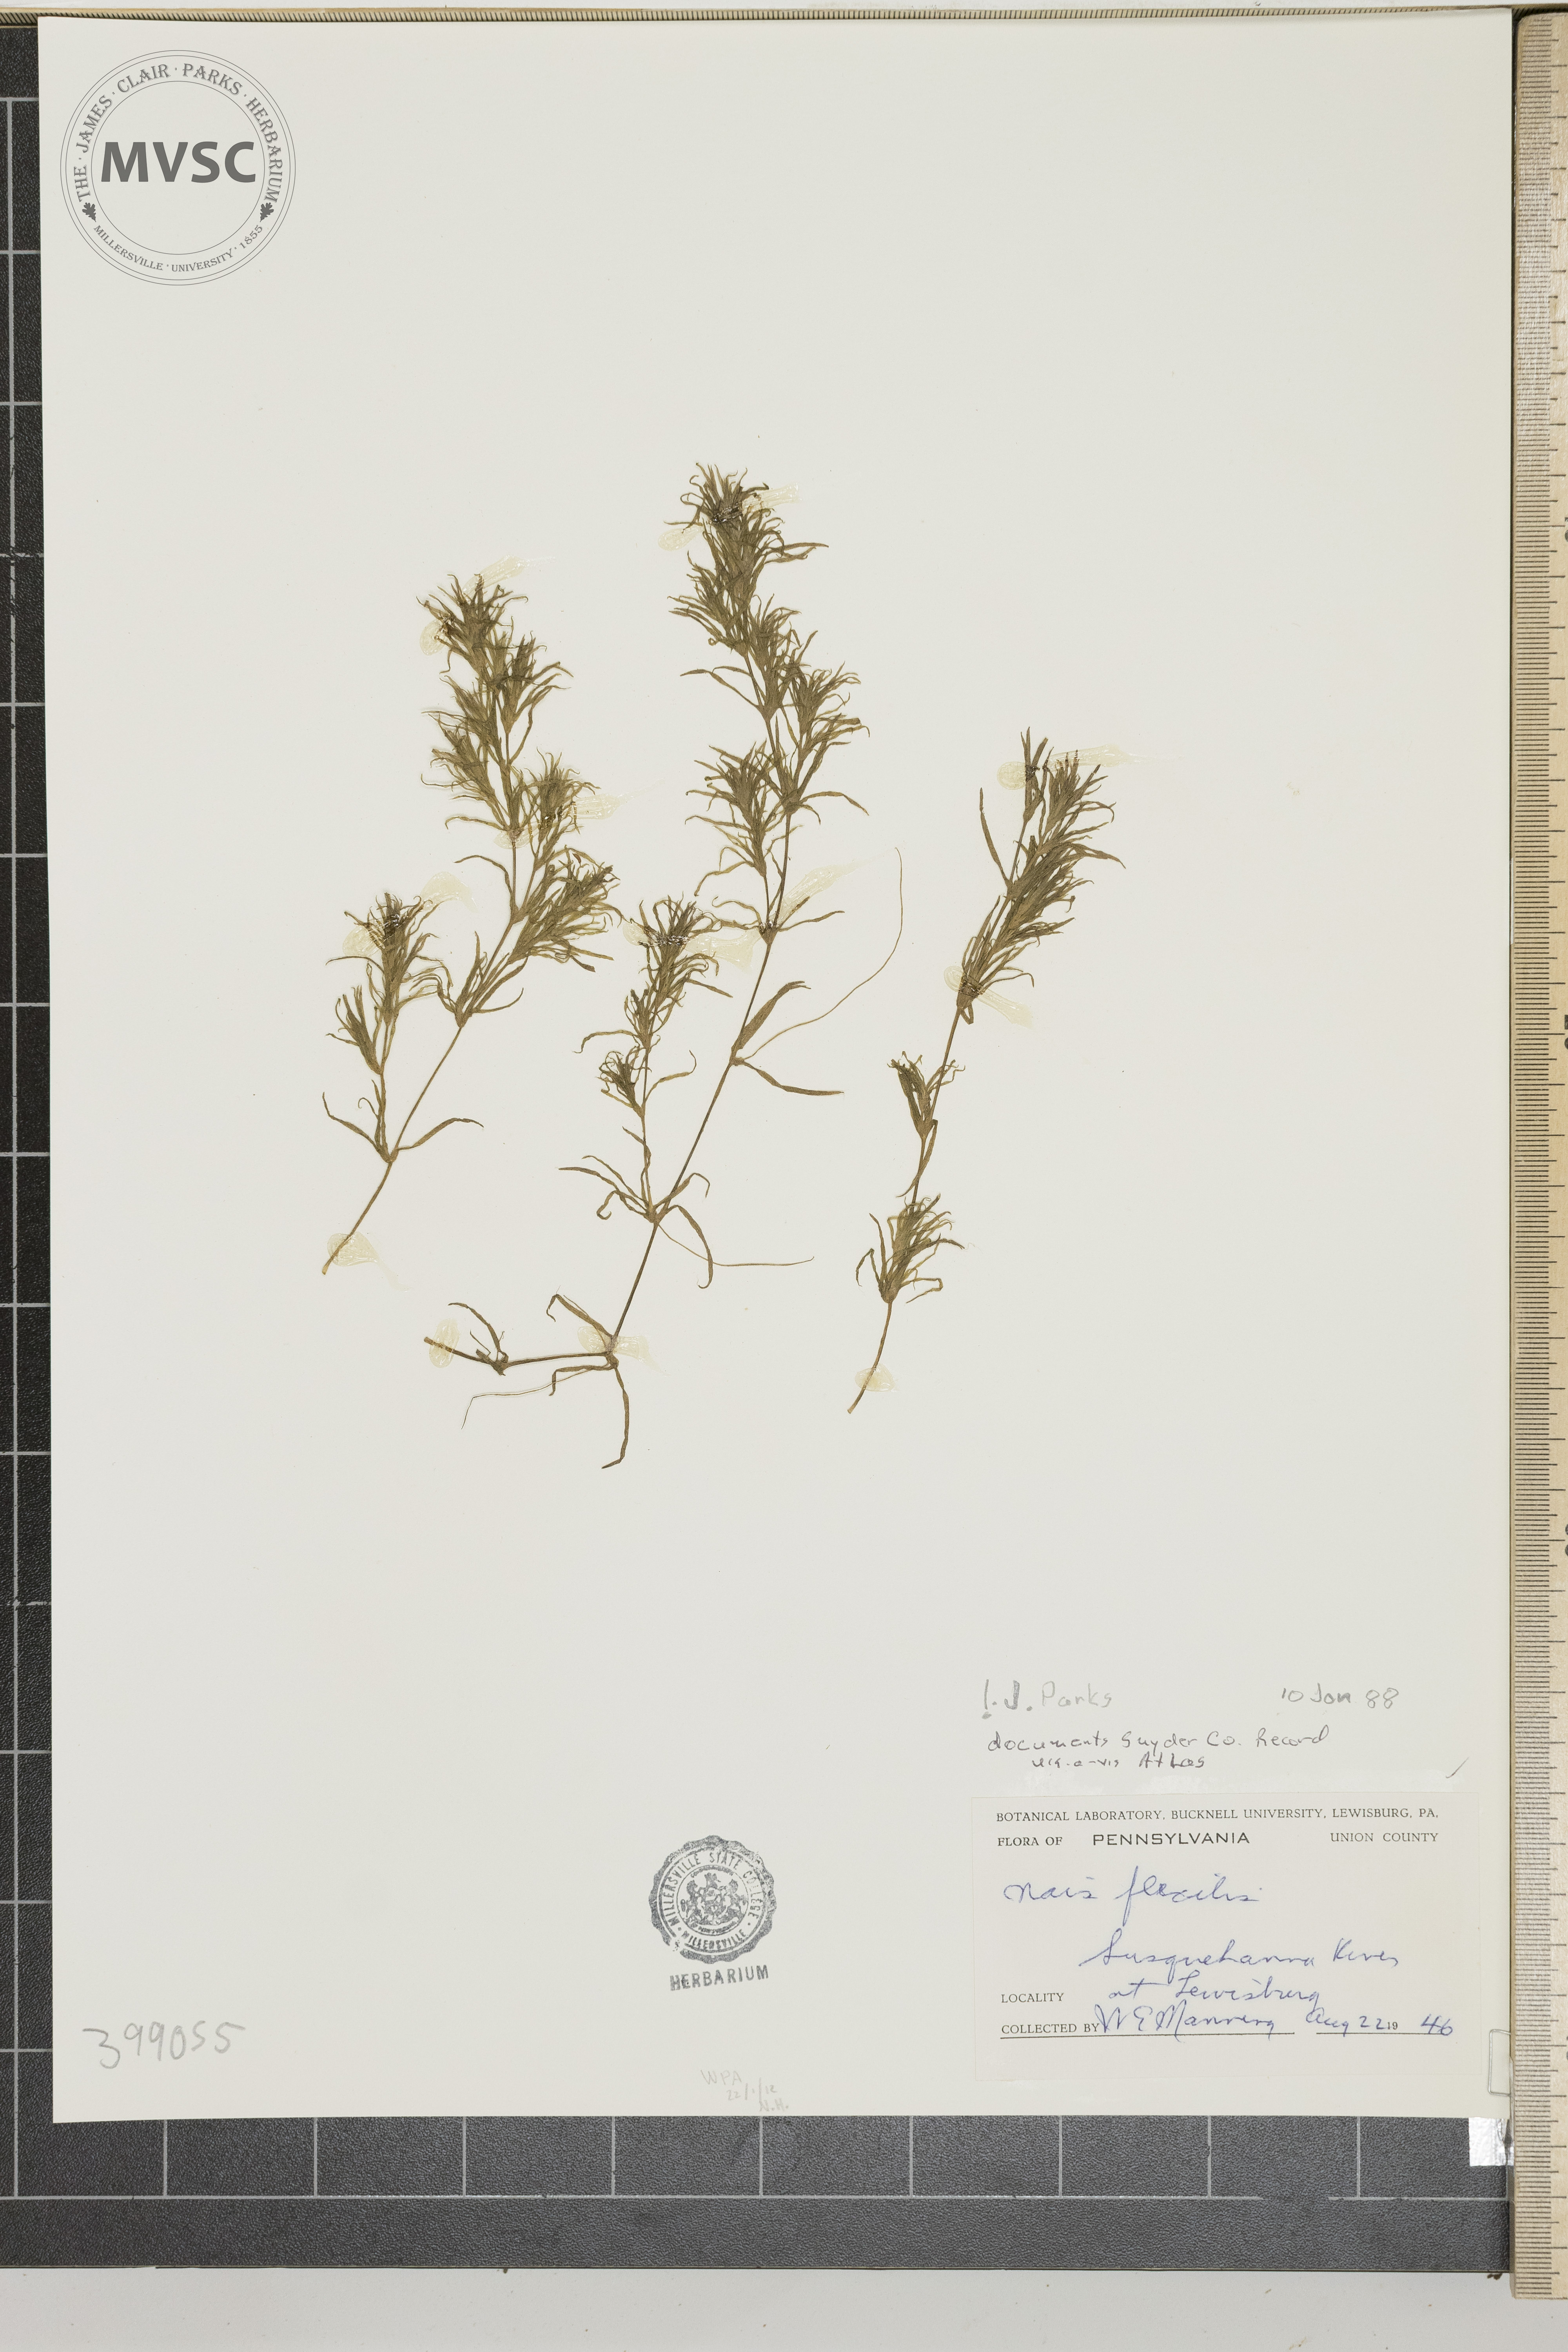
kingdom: Plantae
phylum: Tracheophyta
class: Liliopsida
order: Alismatales
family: Hydrocharitaceae
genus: Najas
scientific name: Najas flexilis
